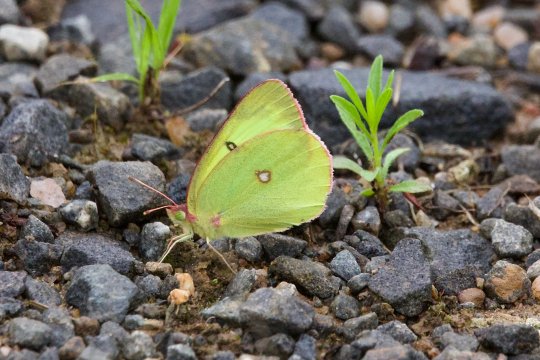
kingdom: Animalia
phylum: Arthropoda
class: Insecta
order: Lepidoptera
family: Pieridae
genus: Colias
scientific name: Colias interior
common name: Pink-edged Sulphur
